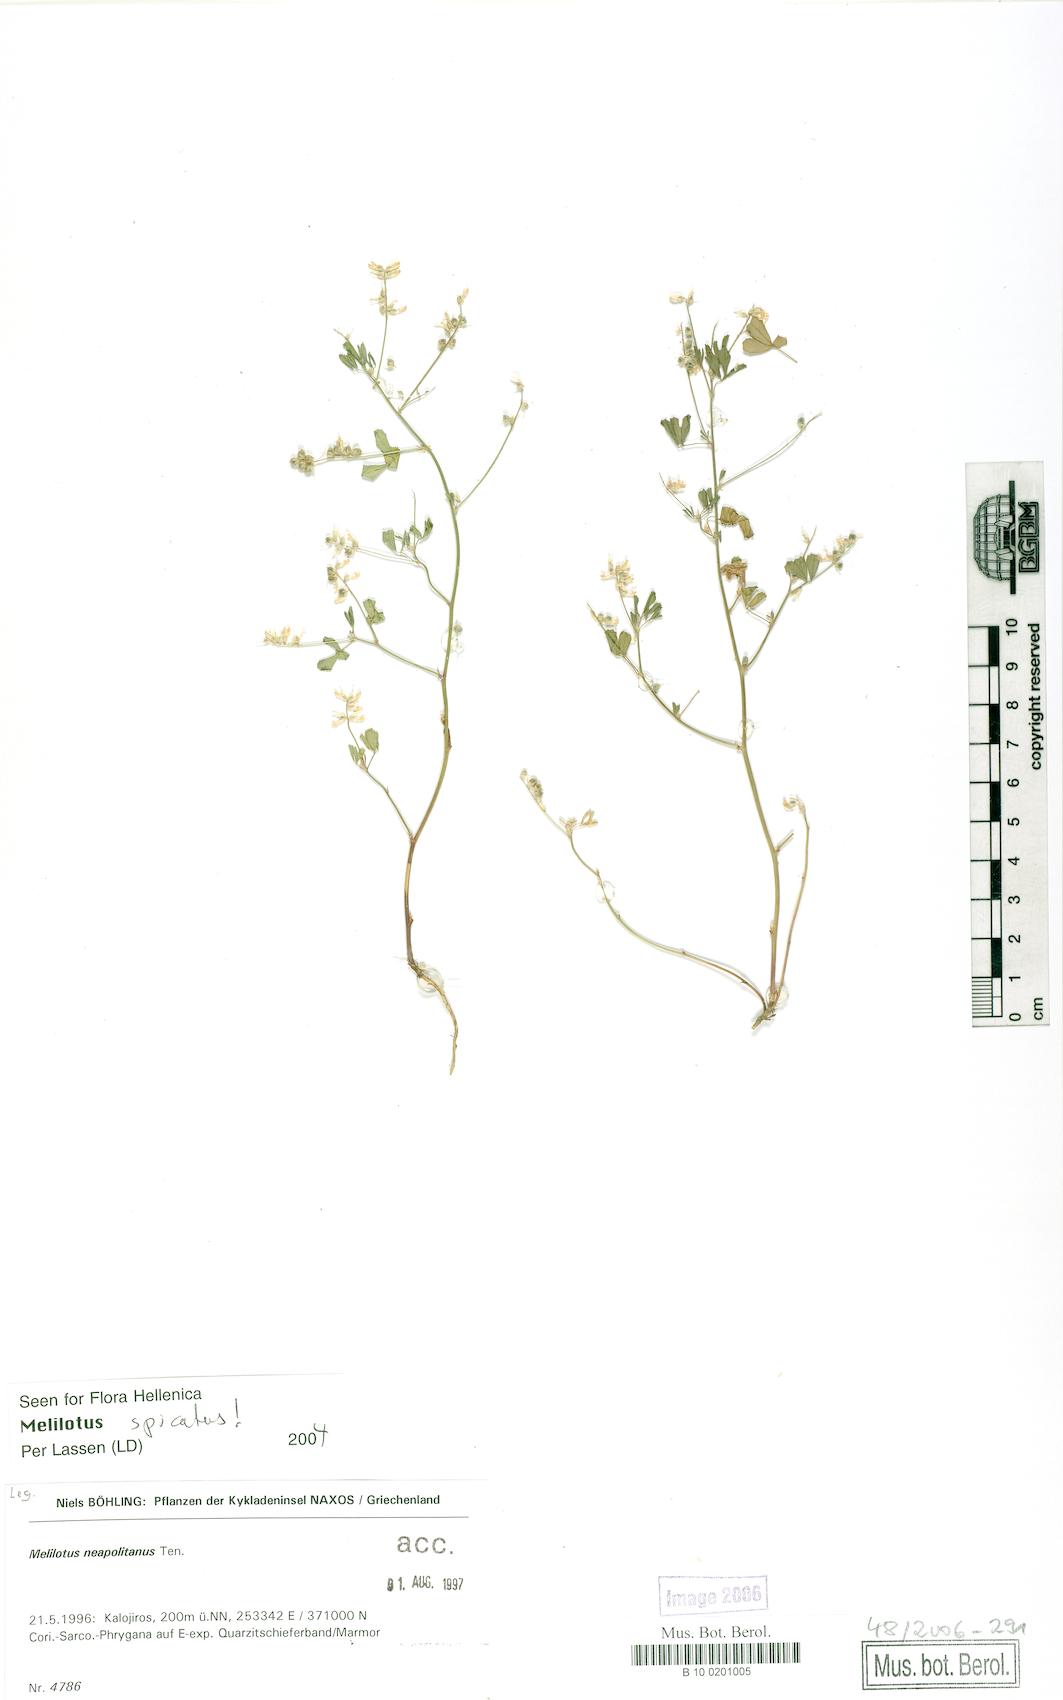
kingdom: Plantae
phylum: Tracheophyta
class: Magnoliopsida
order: Fabales
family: Fabaceae
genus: Melilotus
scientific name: Melilotus neapolitanus
